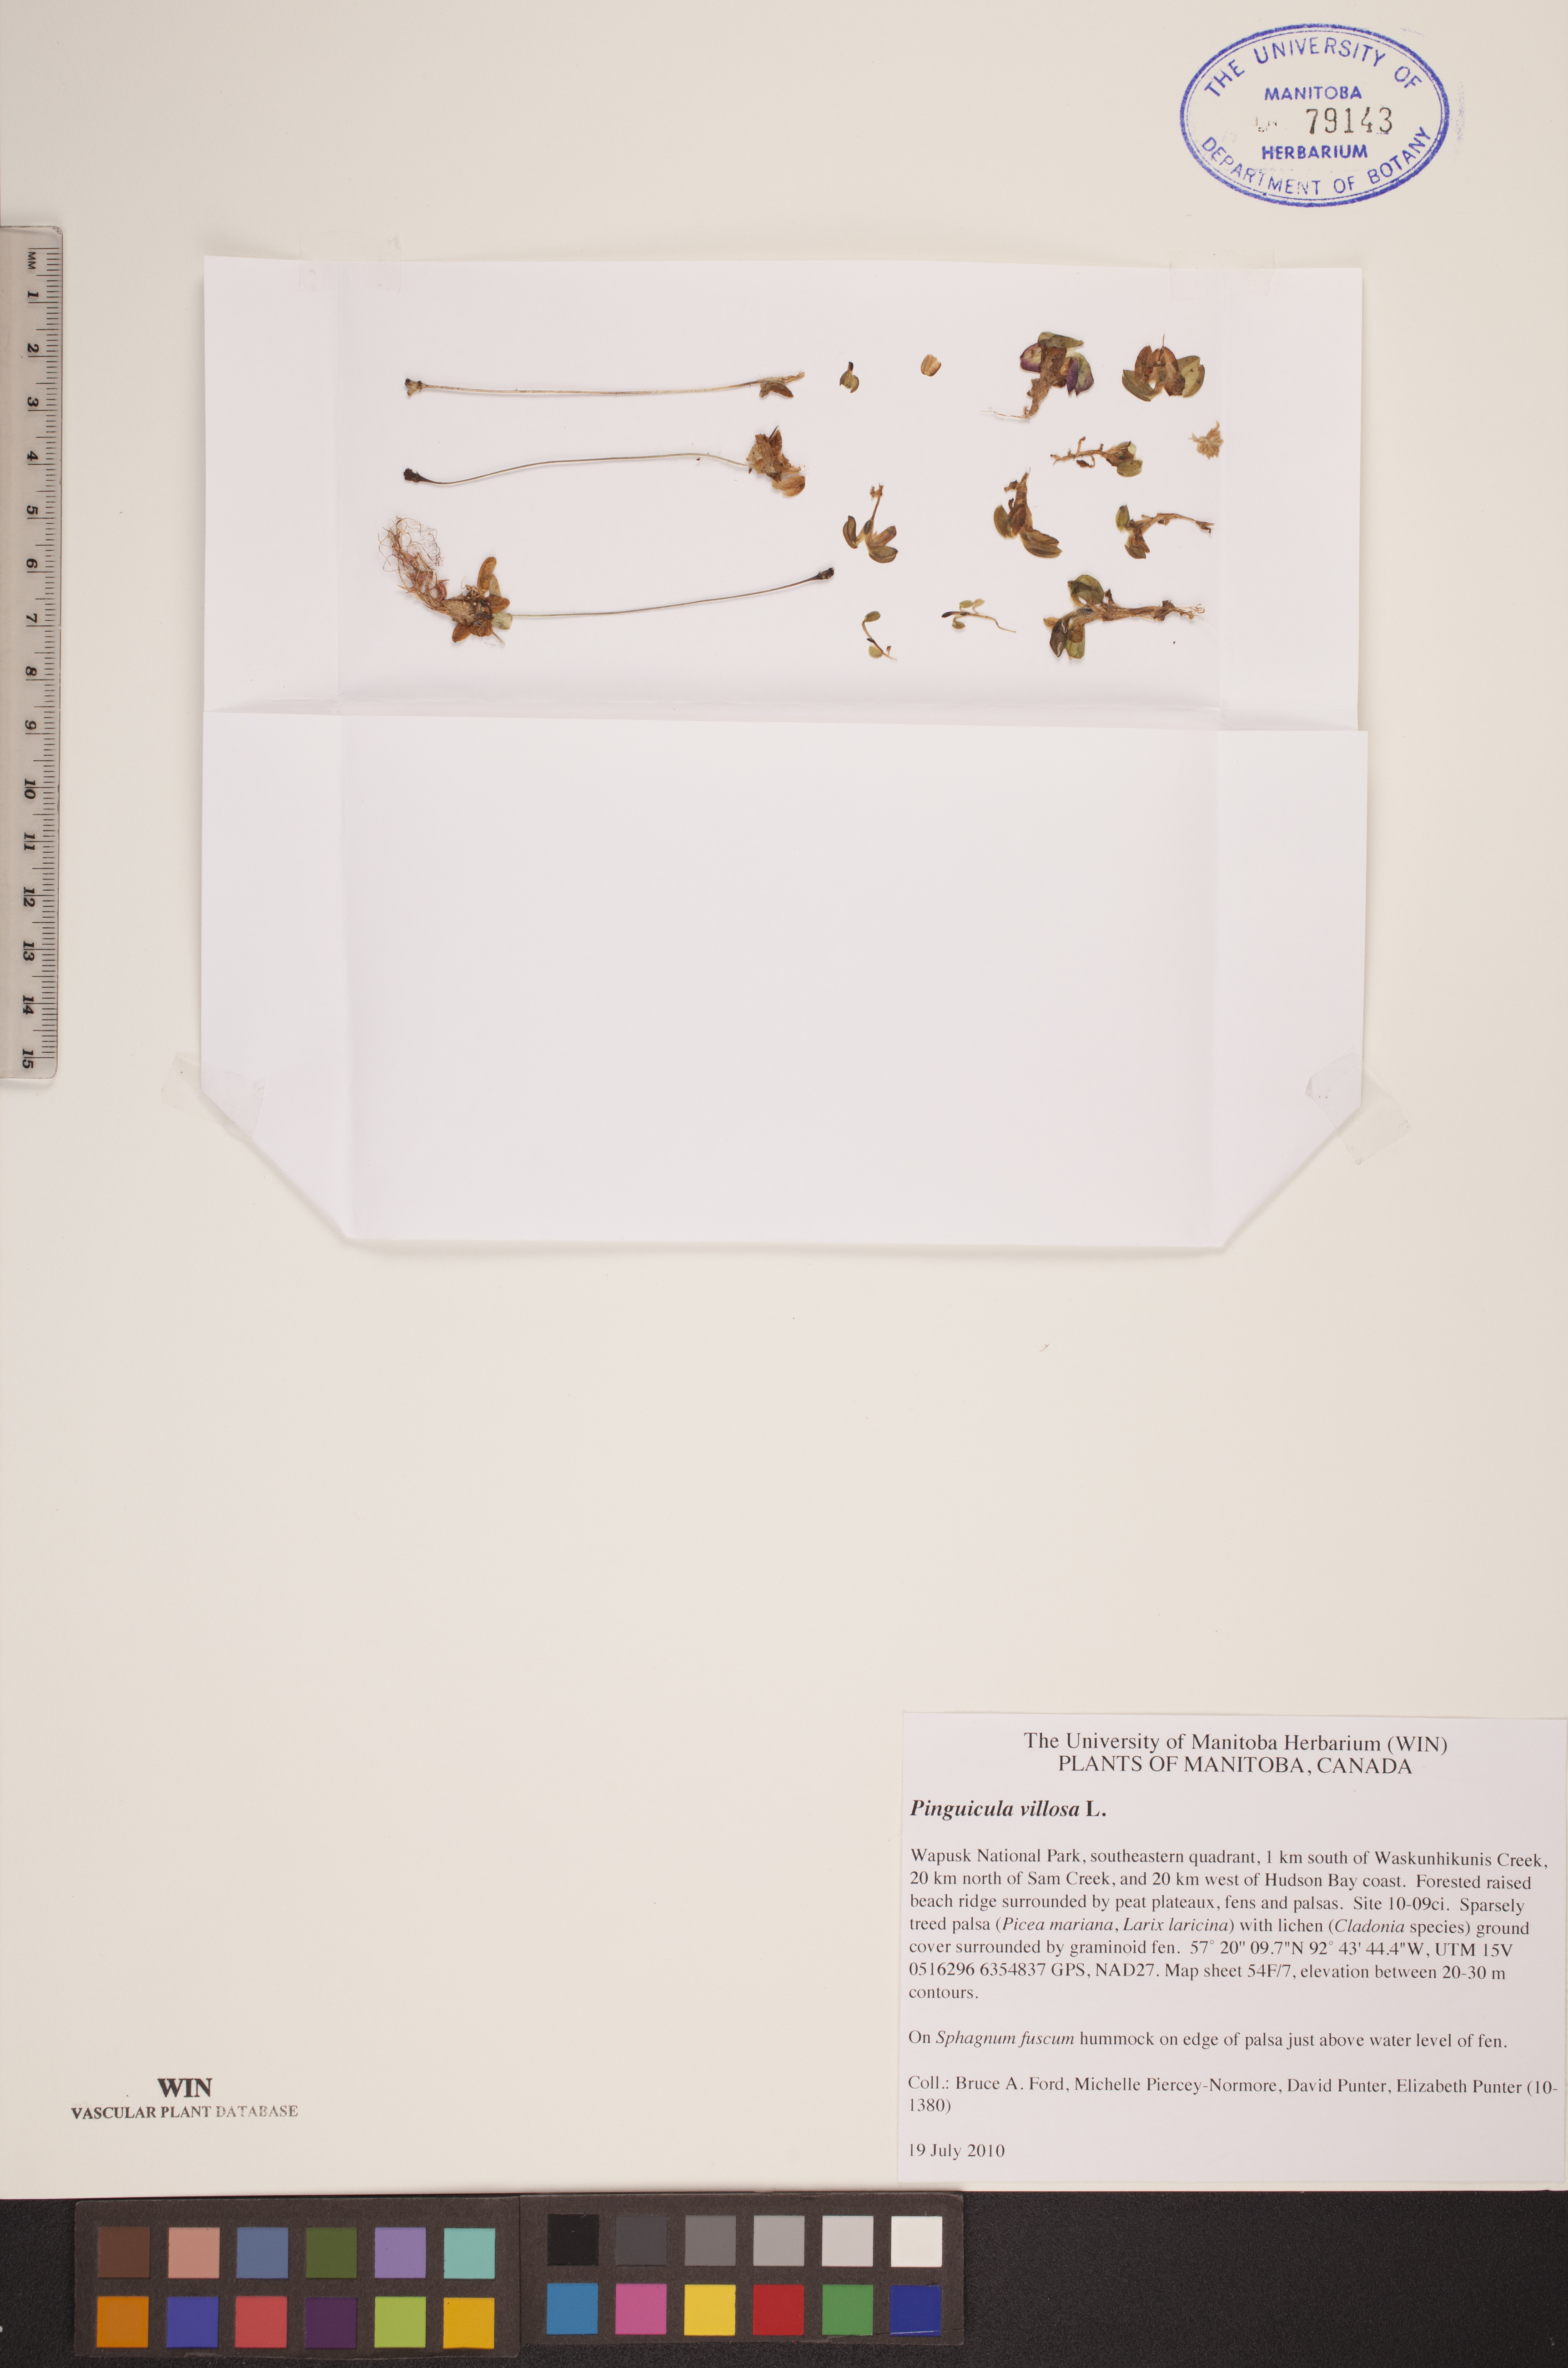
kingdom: Plantae
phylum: Tracheophyta
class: Magnoliopsida
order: Lamiales
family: Lentibulariaceae
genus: Pinguicula
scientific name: Pinguicula villosa
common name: Hairy butterwort
